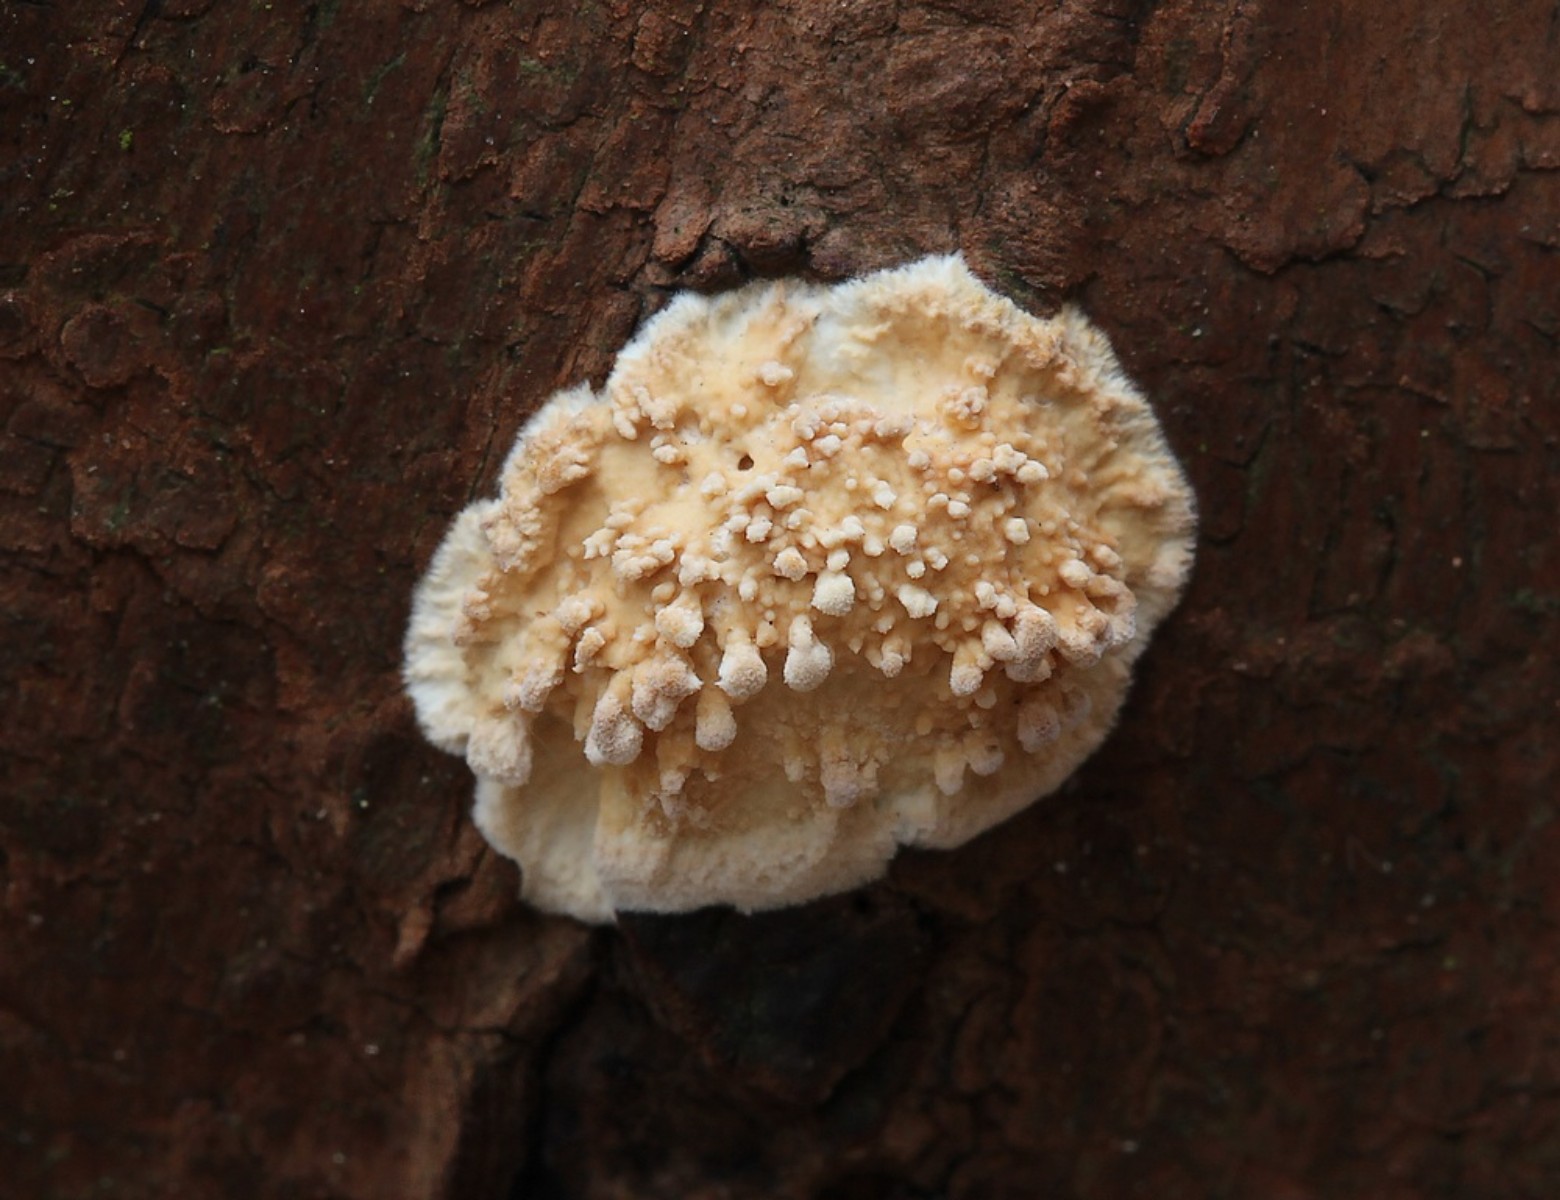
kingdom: Fungi
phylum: Basidiomycota
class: Agaricomycetes
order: Hymenochaetales
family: Schizoporaceae
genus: Xylodon
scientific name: Xylodon radula
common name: grovtandet kalkskind
